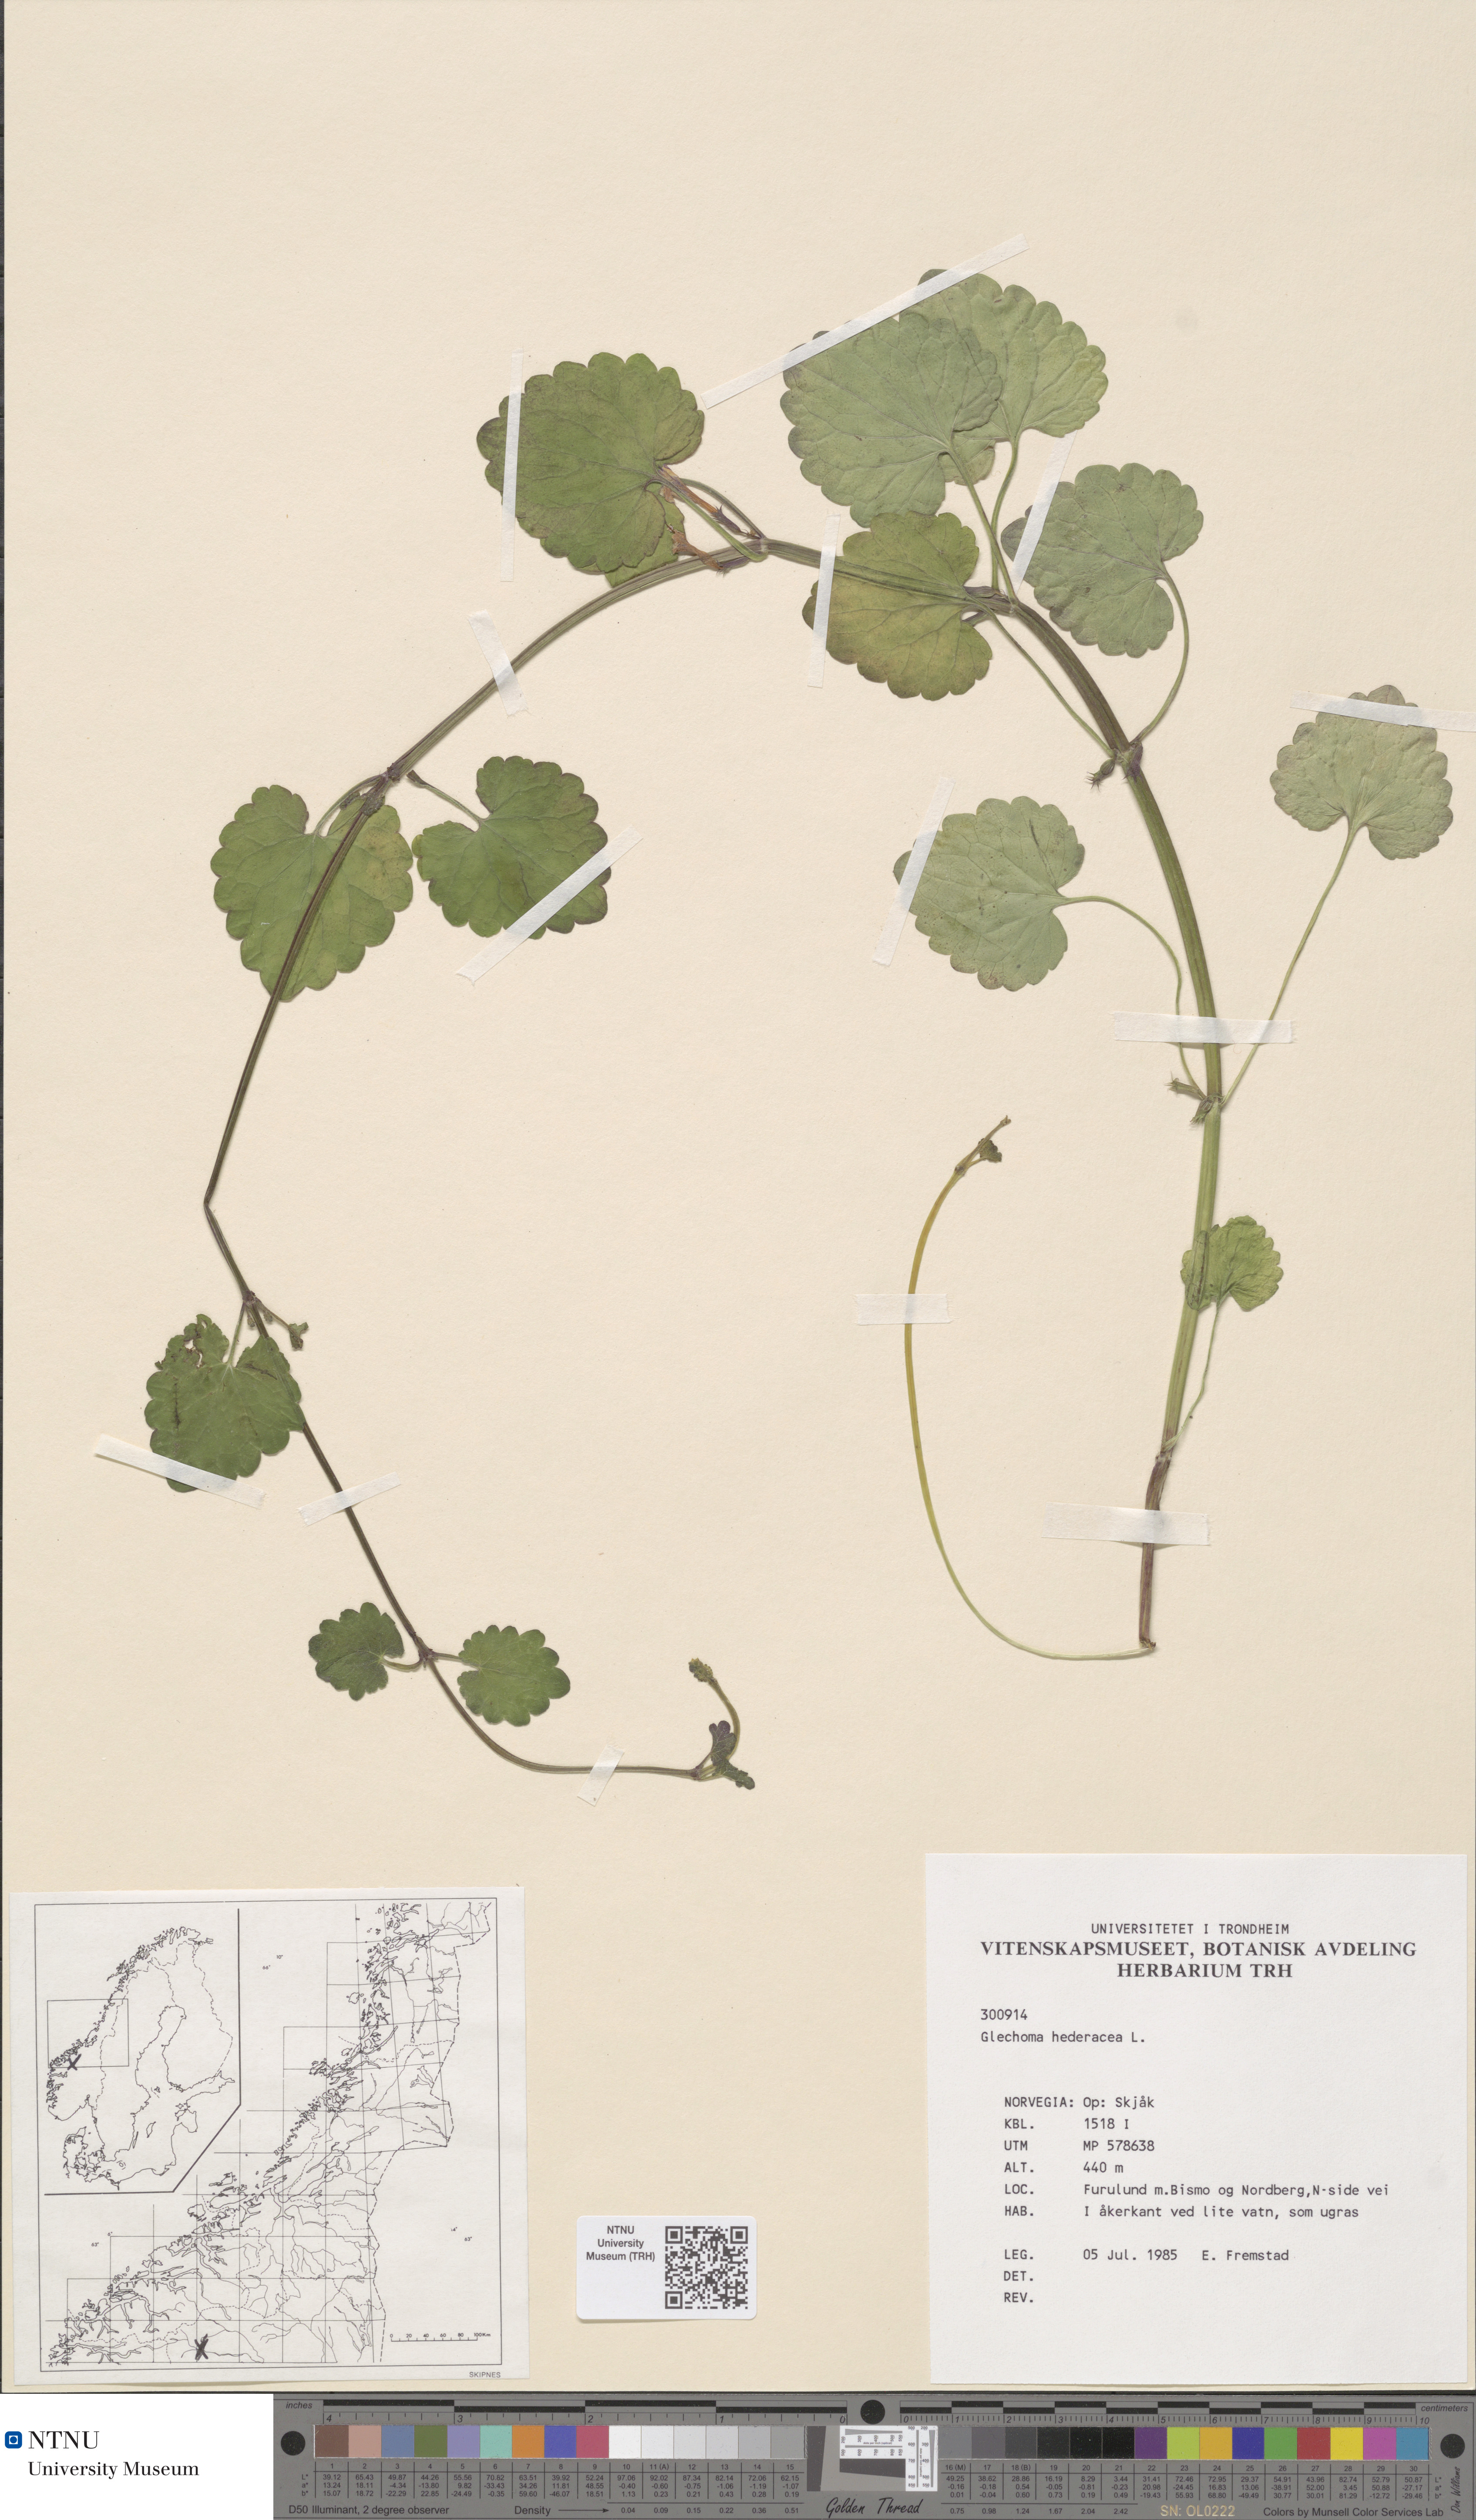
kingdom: Plantae
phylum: Tracheophyta
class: Magnoliopsida
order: Lamiales
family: Lamiaceae
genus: Glechoma
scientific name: Glechoma hederacea
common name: Ground ivy
